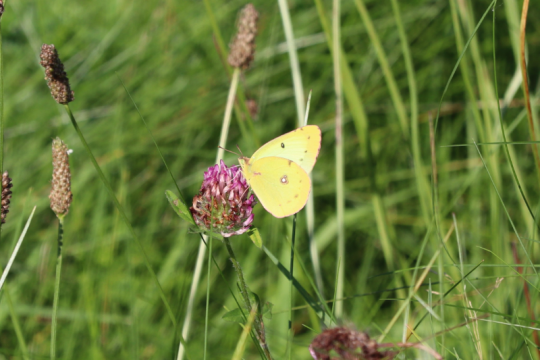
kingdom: Animalia
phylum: Arthropoda
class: Insecta
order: Lepidoptera
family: Pieridae
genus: Colias
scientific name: Colias philodice
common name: Clouded Sulphur
